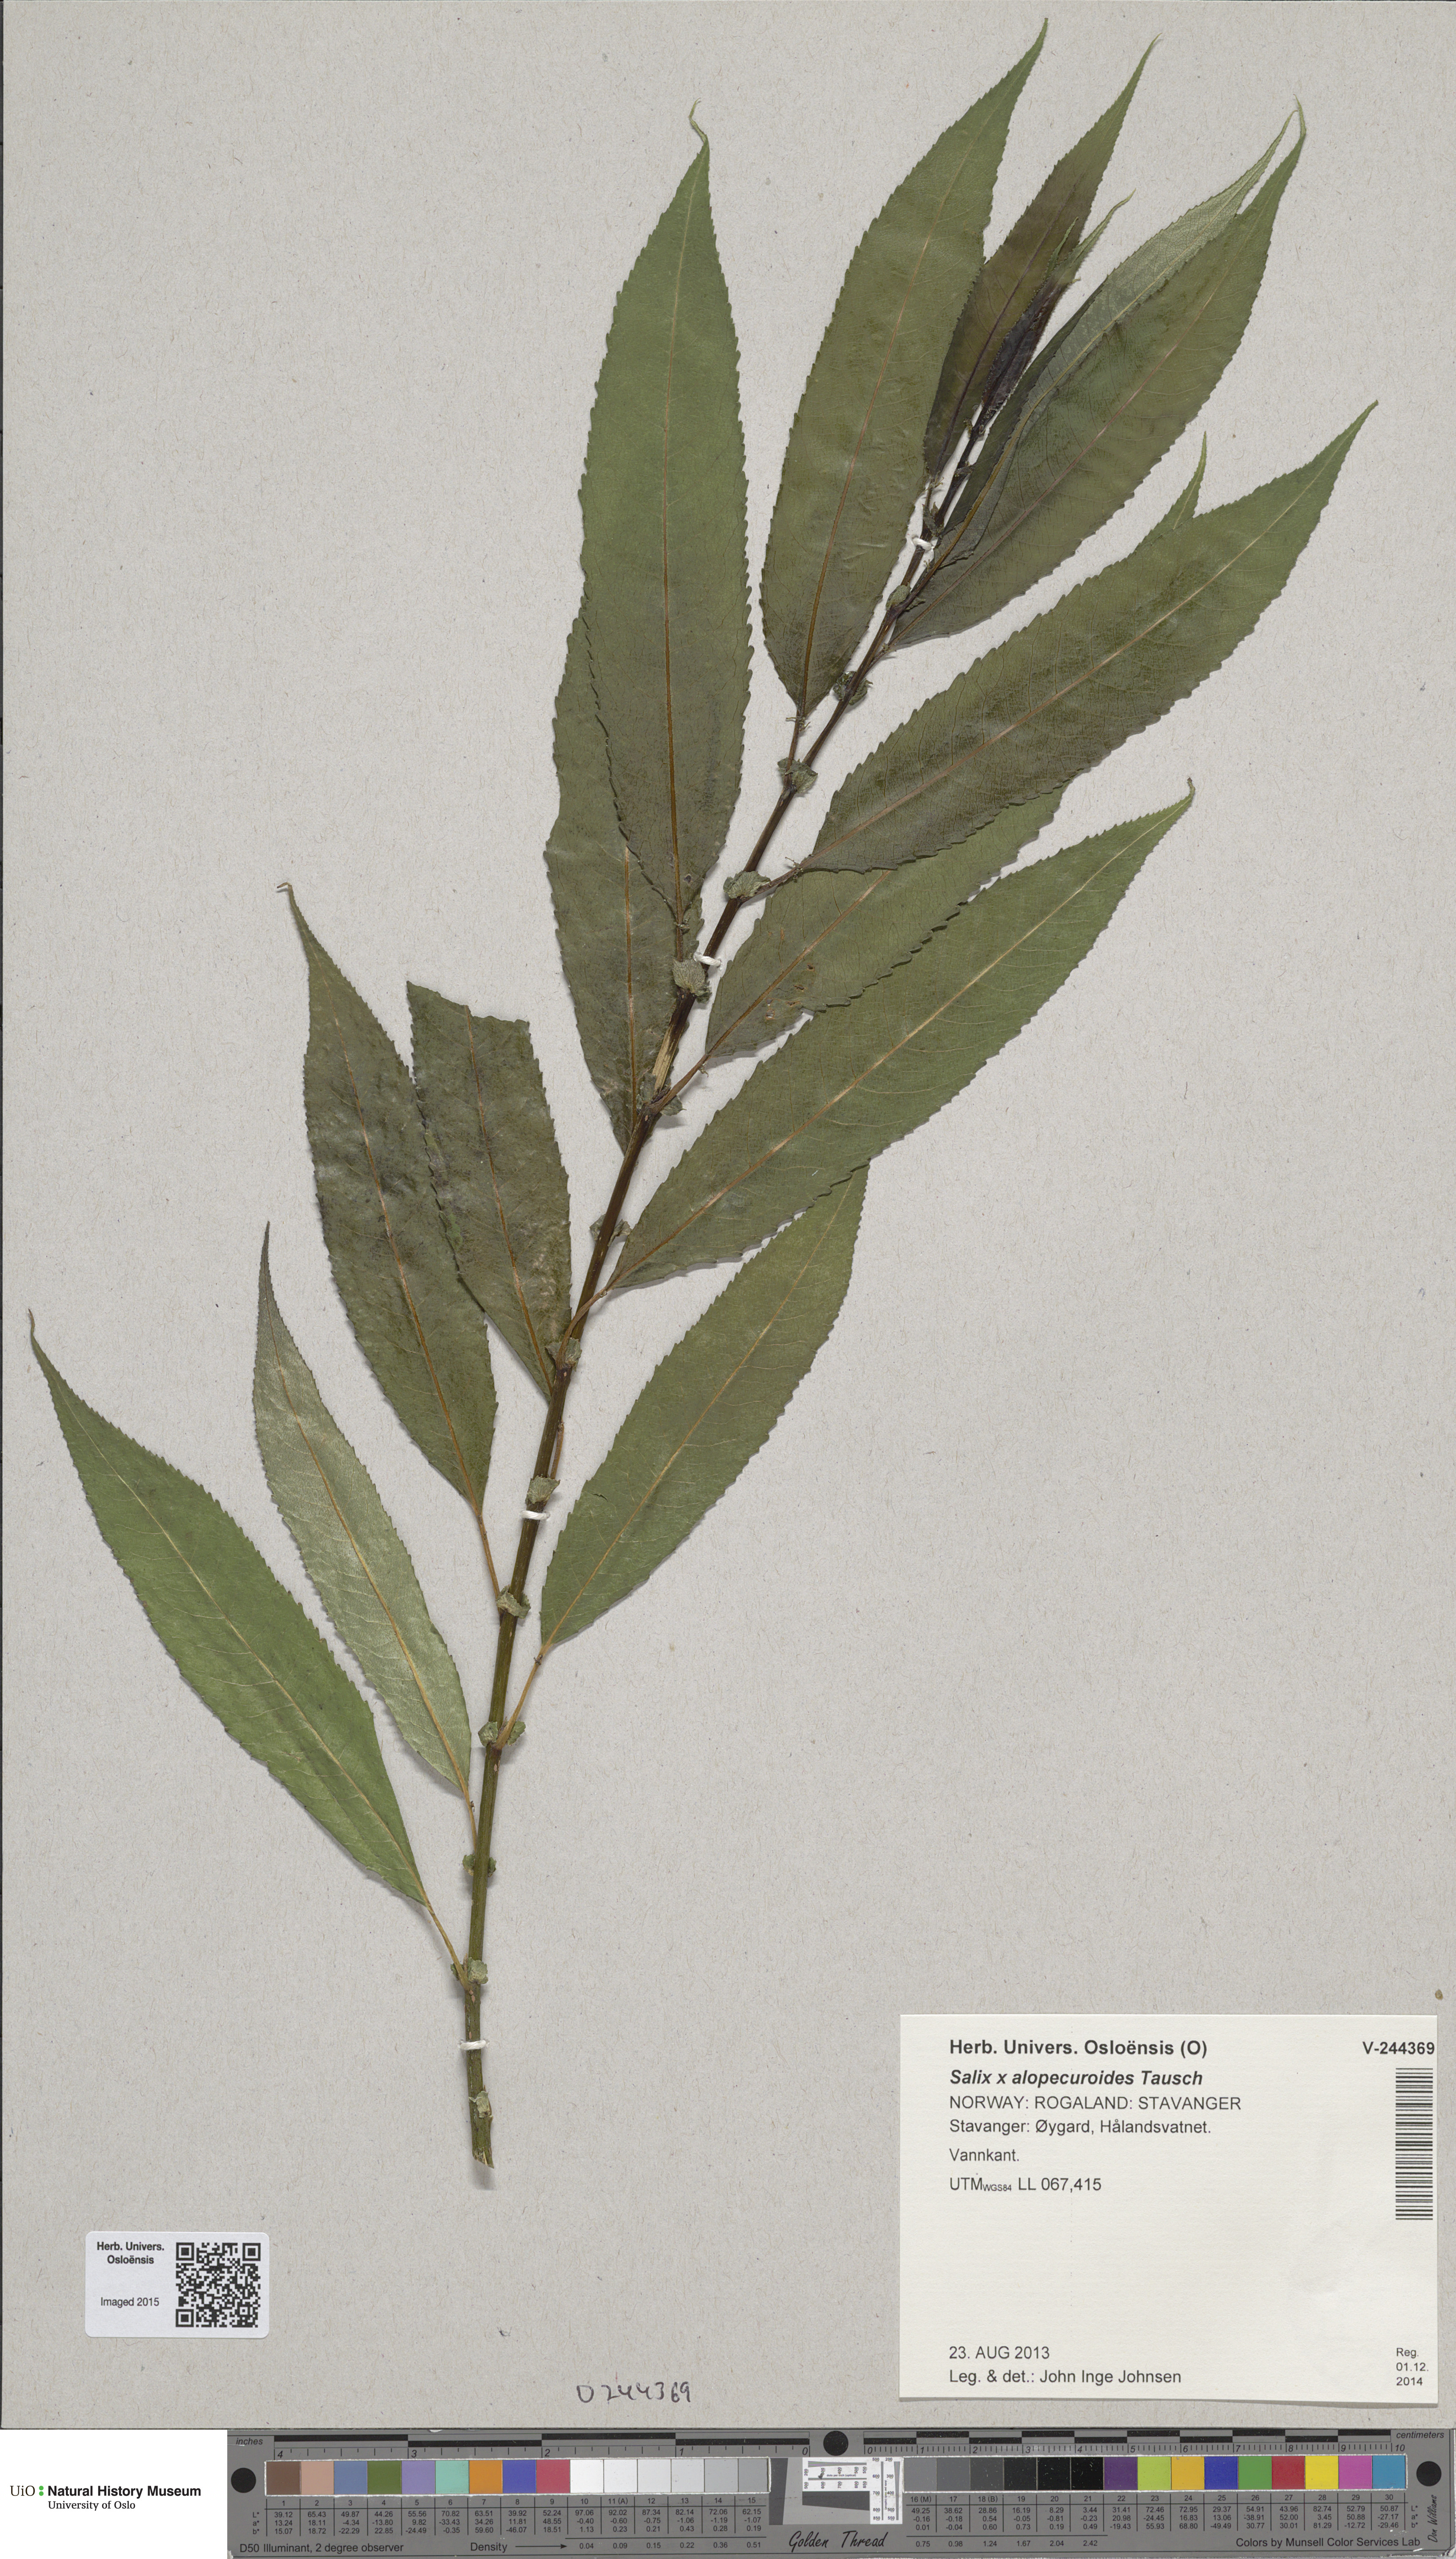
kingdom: Plantae
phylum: Tracheophyta
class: Magnoliopsida
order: Malpighiales
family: Salicaceae
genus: Salix
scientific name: Salix speciosa
